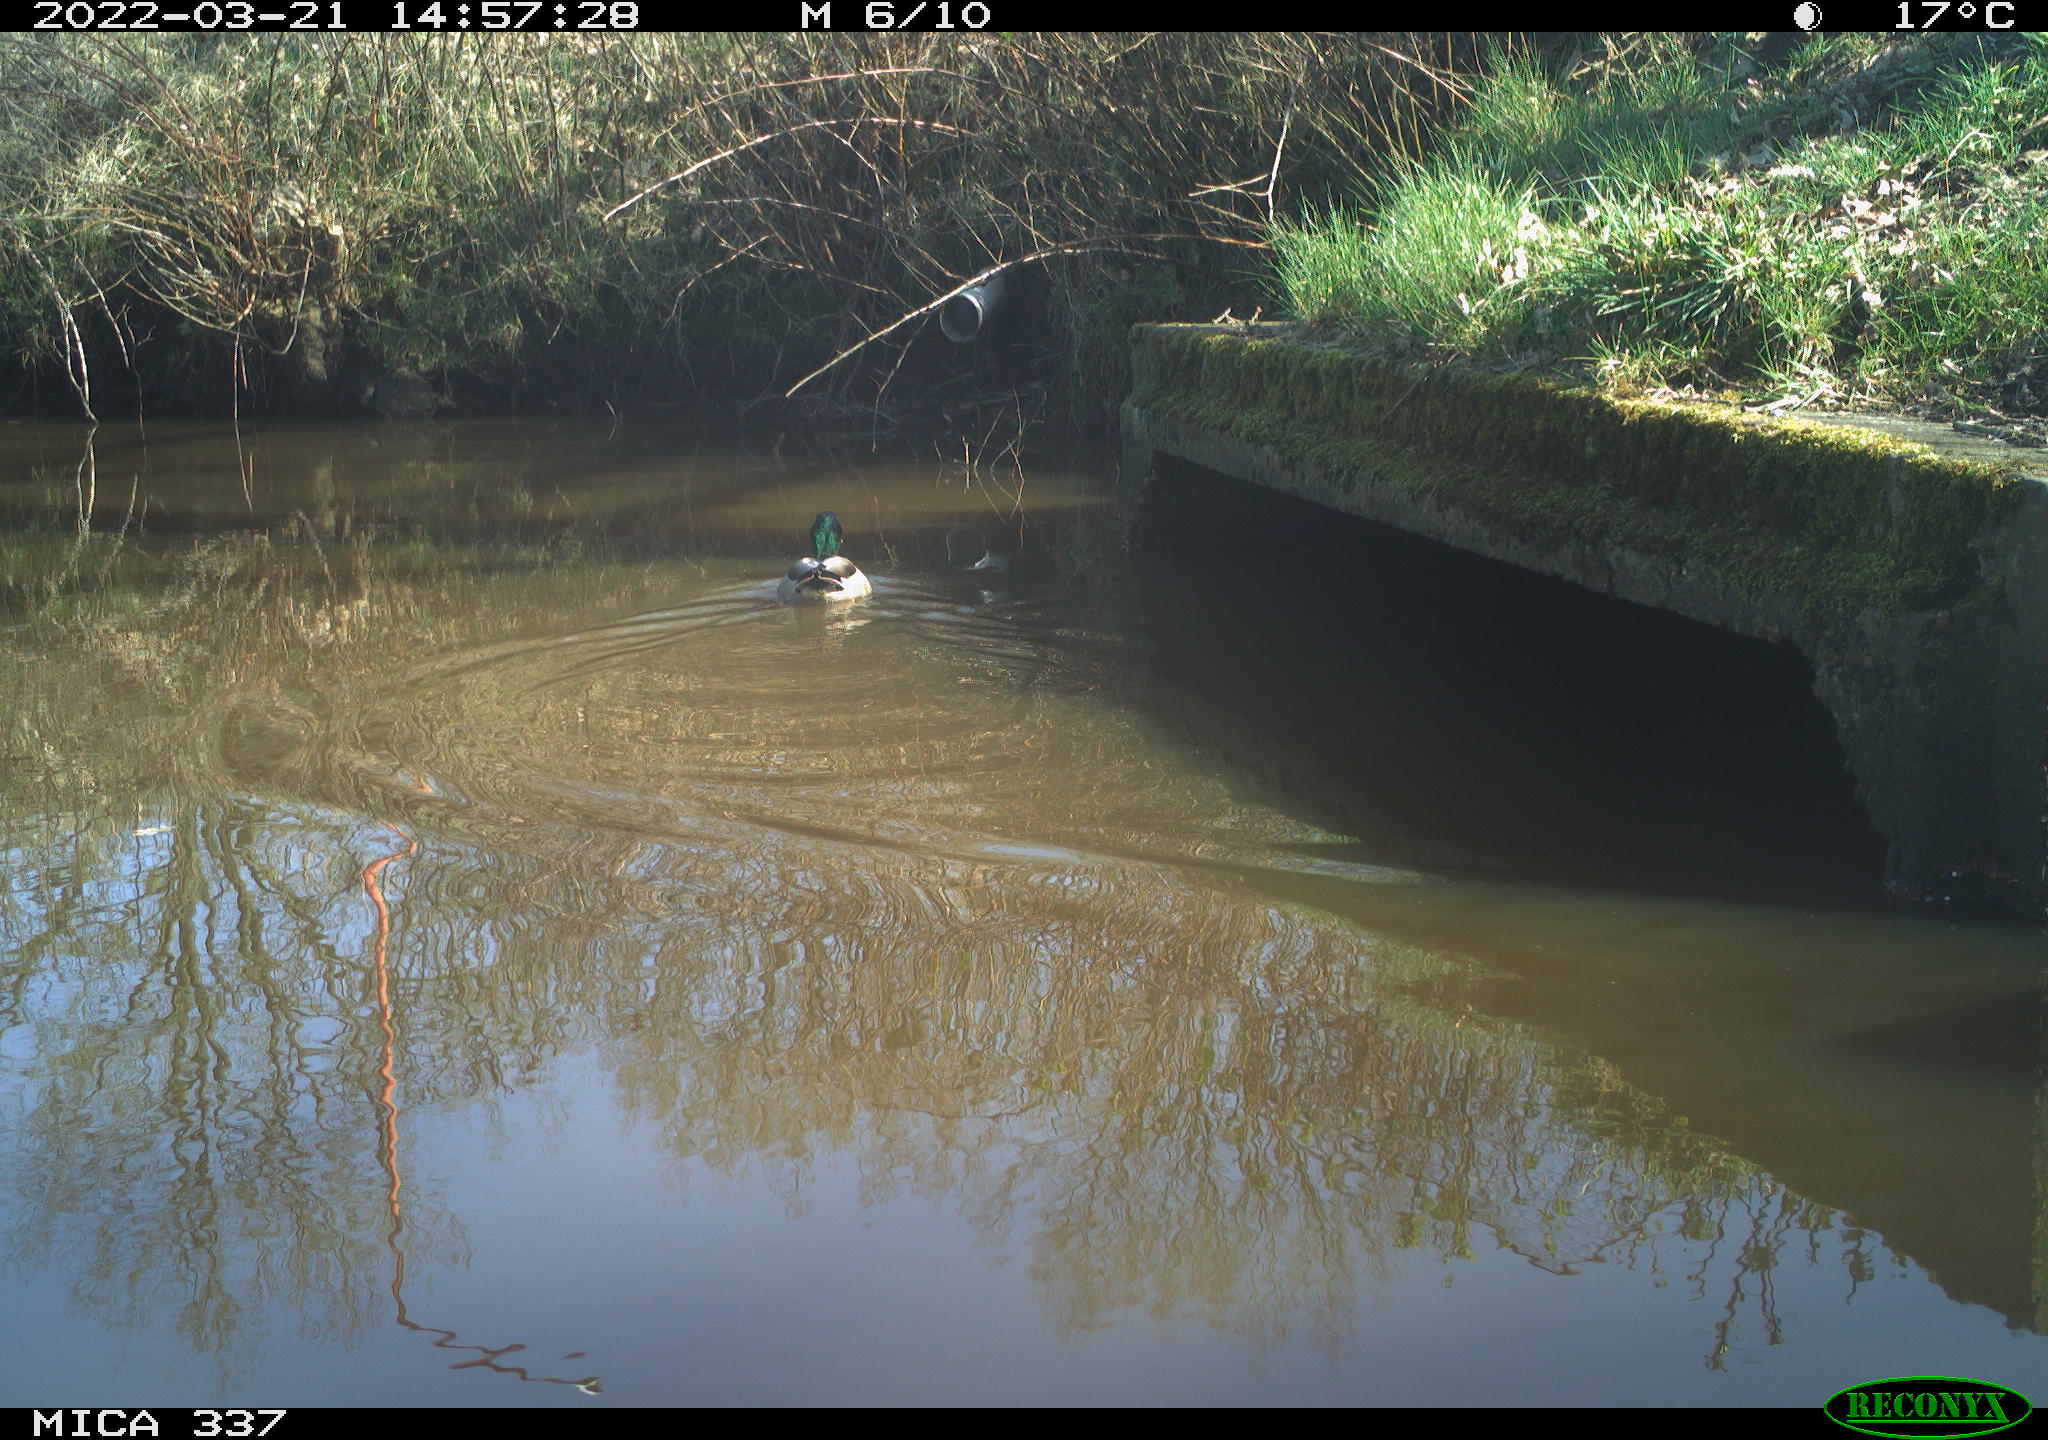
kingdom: Animalia
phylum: Chordata
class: Aves
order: Anseriformes
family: Anatidae
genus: Anas
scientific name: Anas platyrhynchos
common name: Mallard
